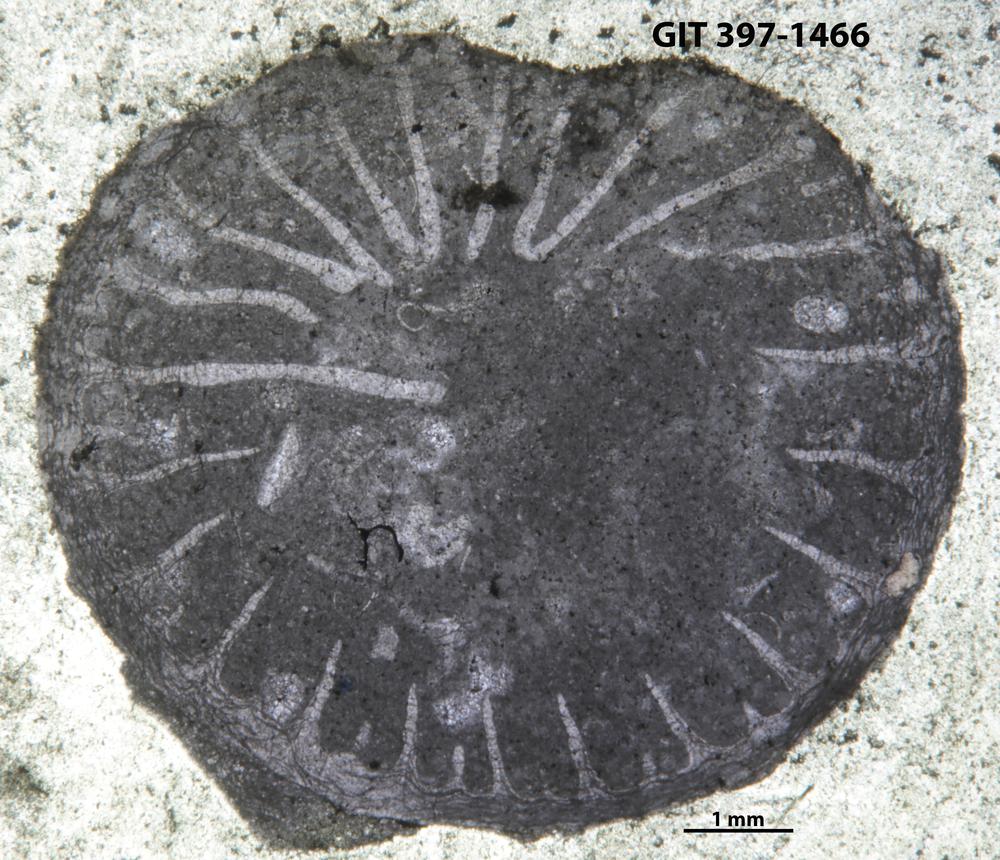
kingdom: Animalia
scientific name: Animalia
